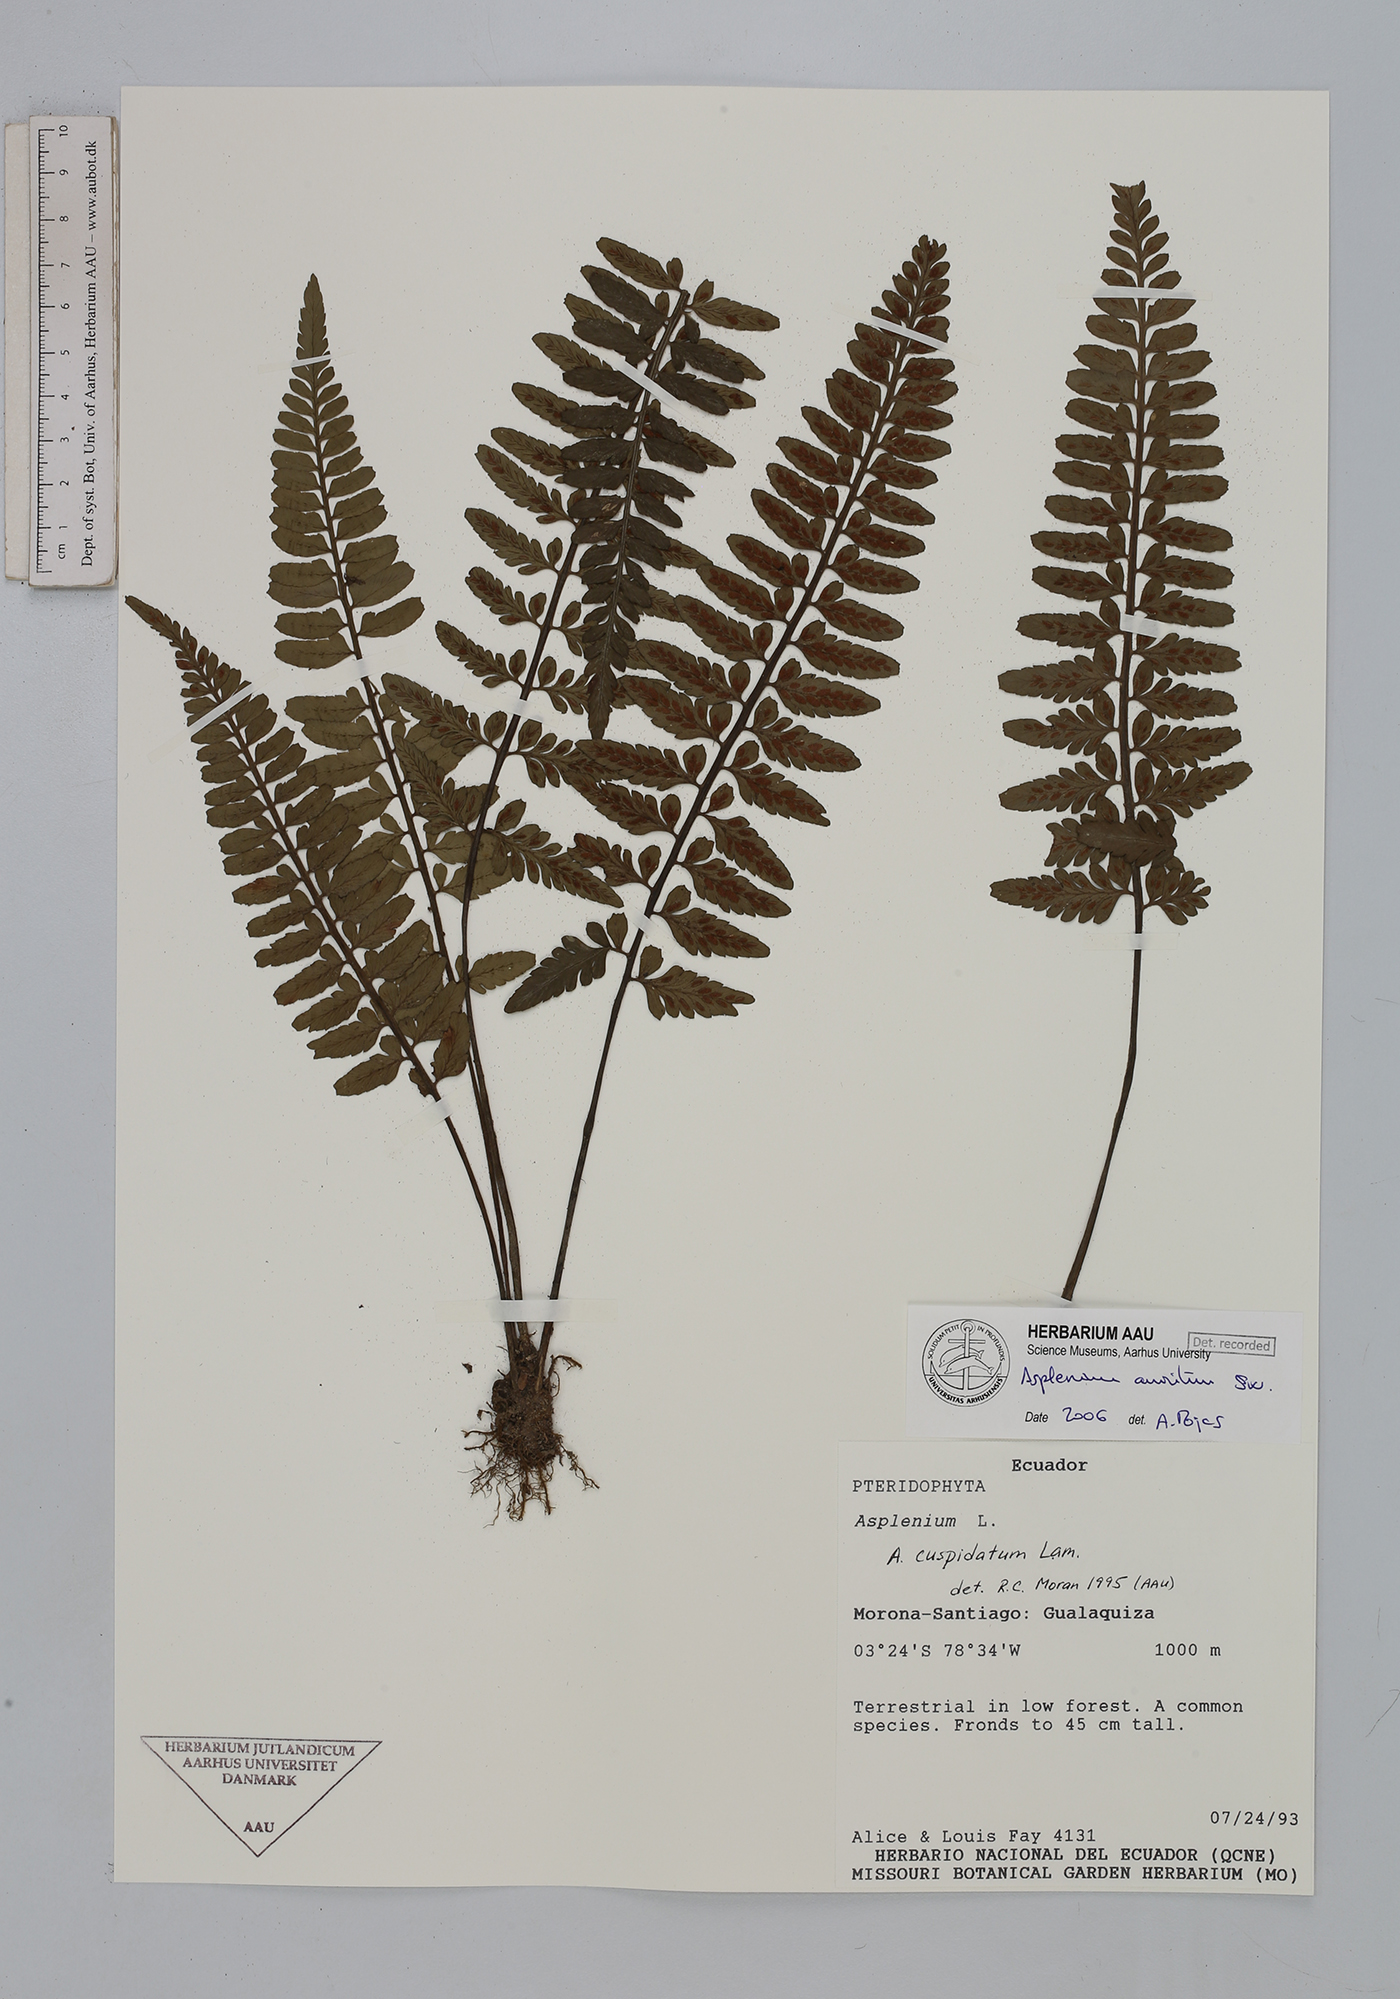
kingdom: Plantae
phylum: Tracheophyta
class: Polypodiopsida
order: Polypodiales
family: Aspleniaceae
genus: Asplenium
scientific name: Asplenium auritum
